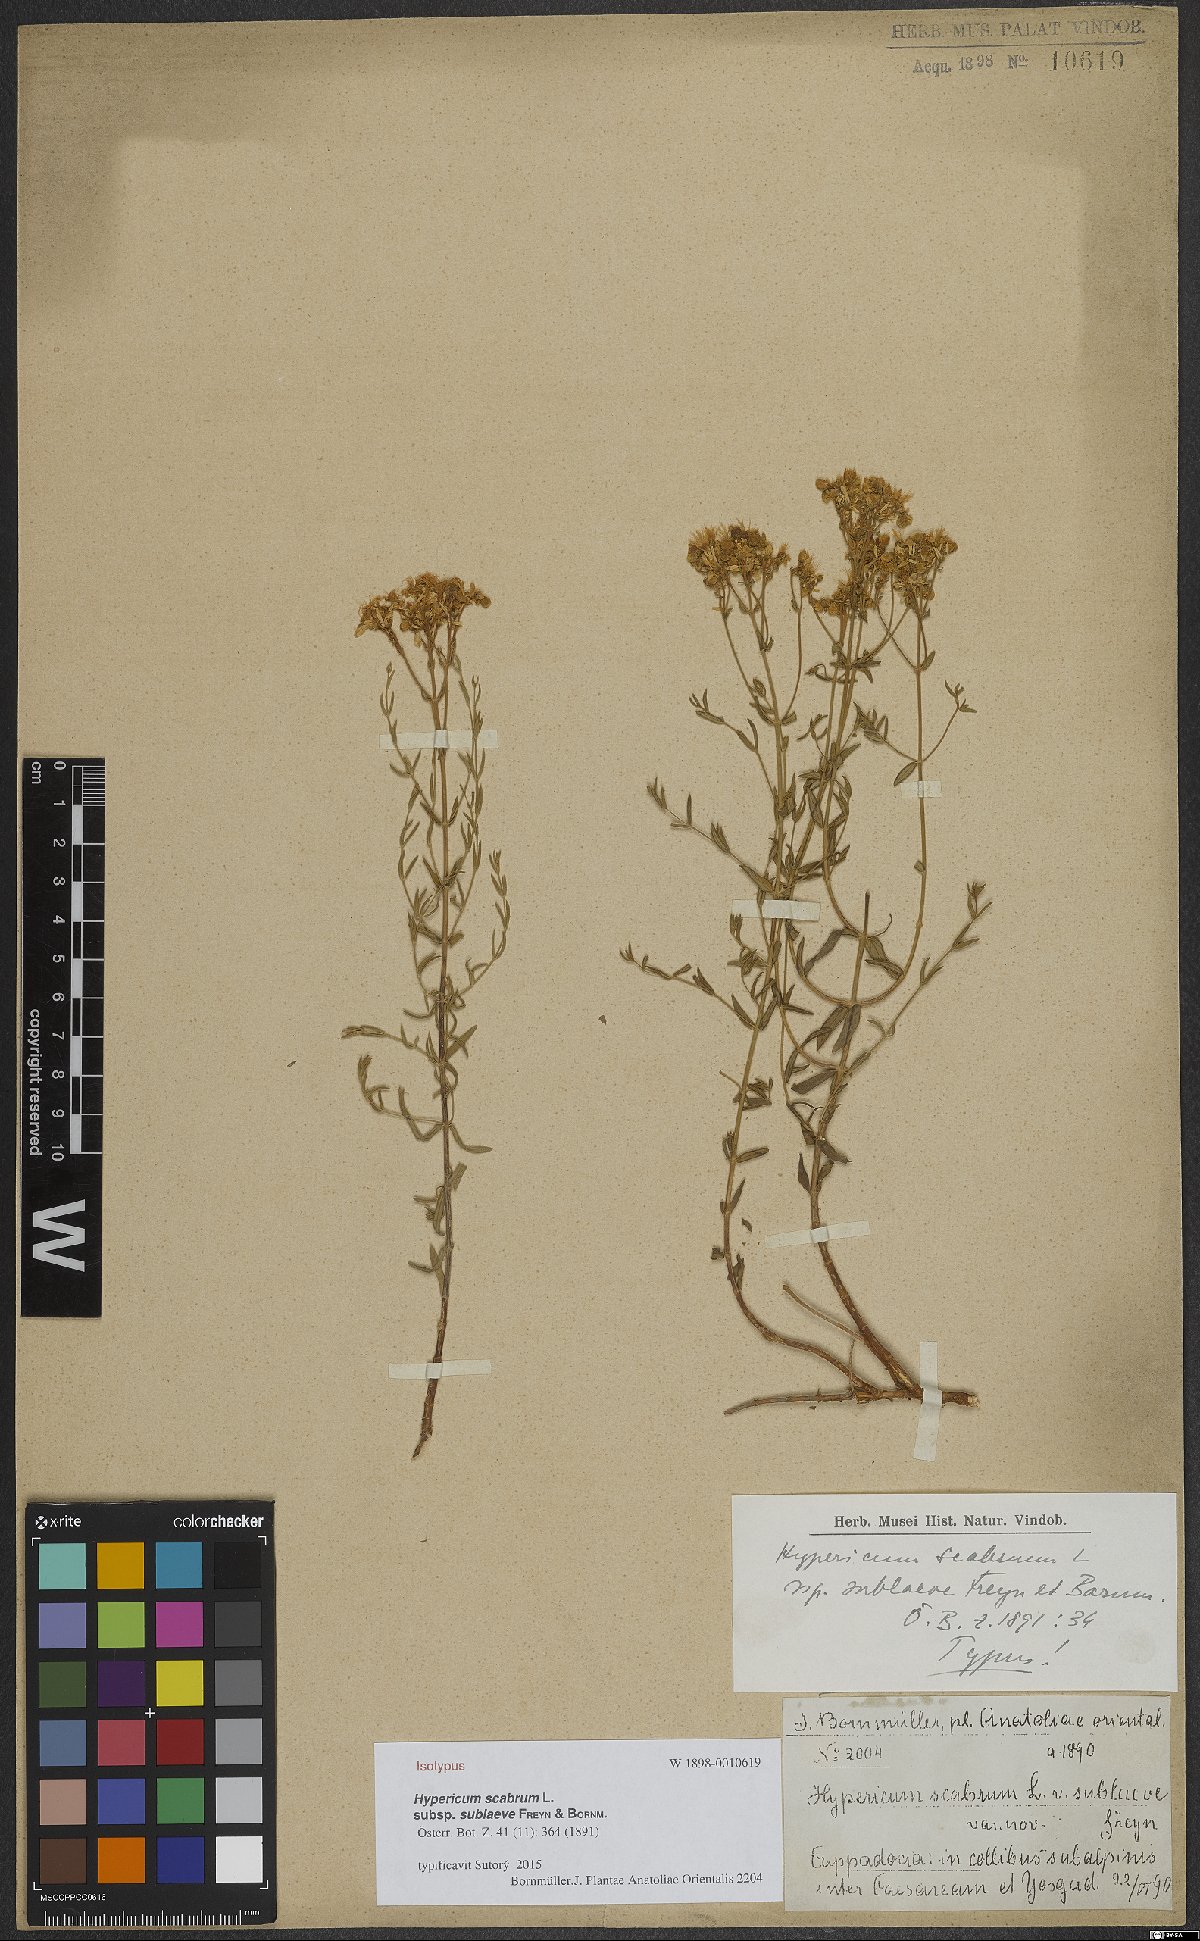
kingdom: Plantae
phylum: Tracheophyta
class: Magnoliopsida
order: Malpighiales
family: Hypericaceae
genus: Hypericum
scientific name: Hypericum scabrum
